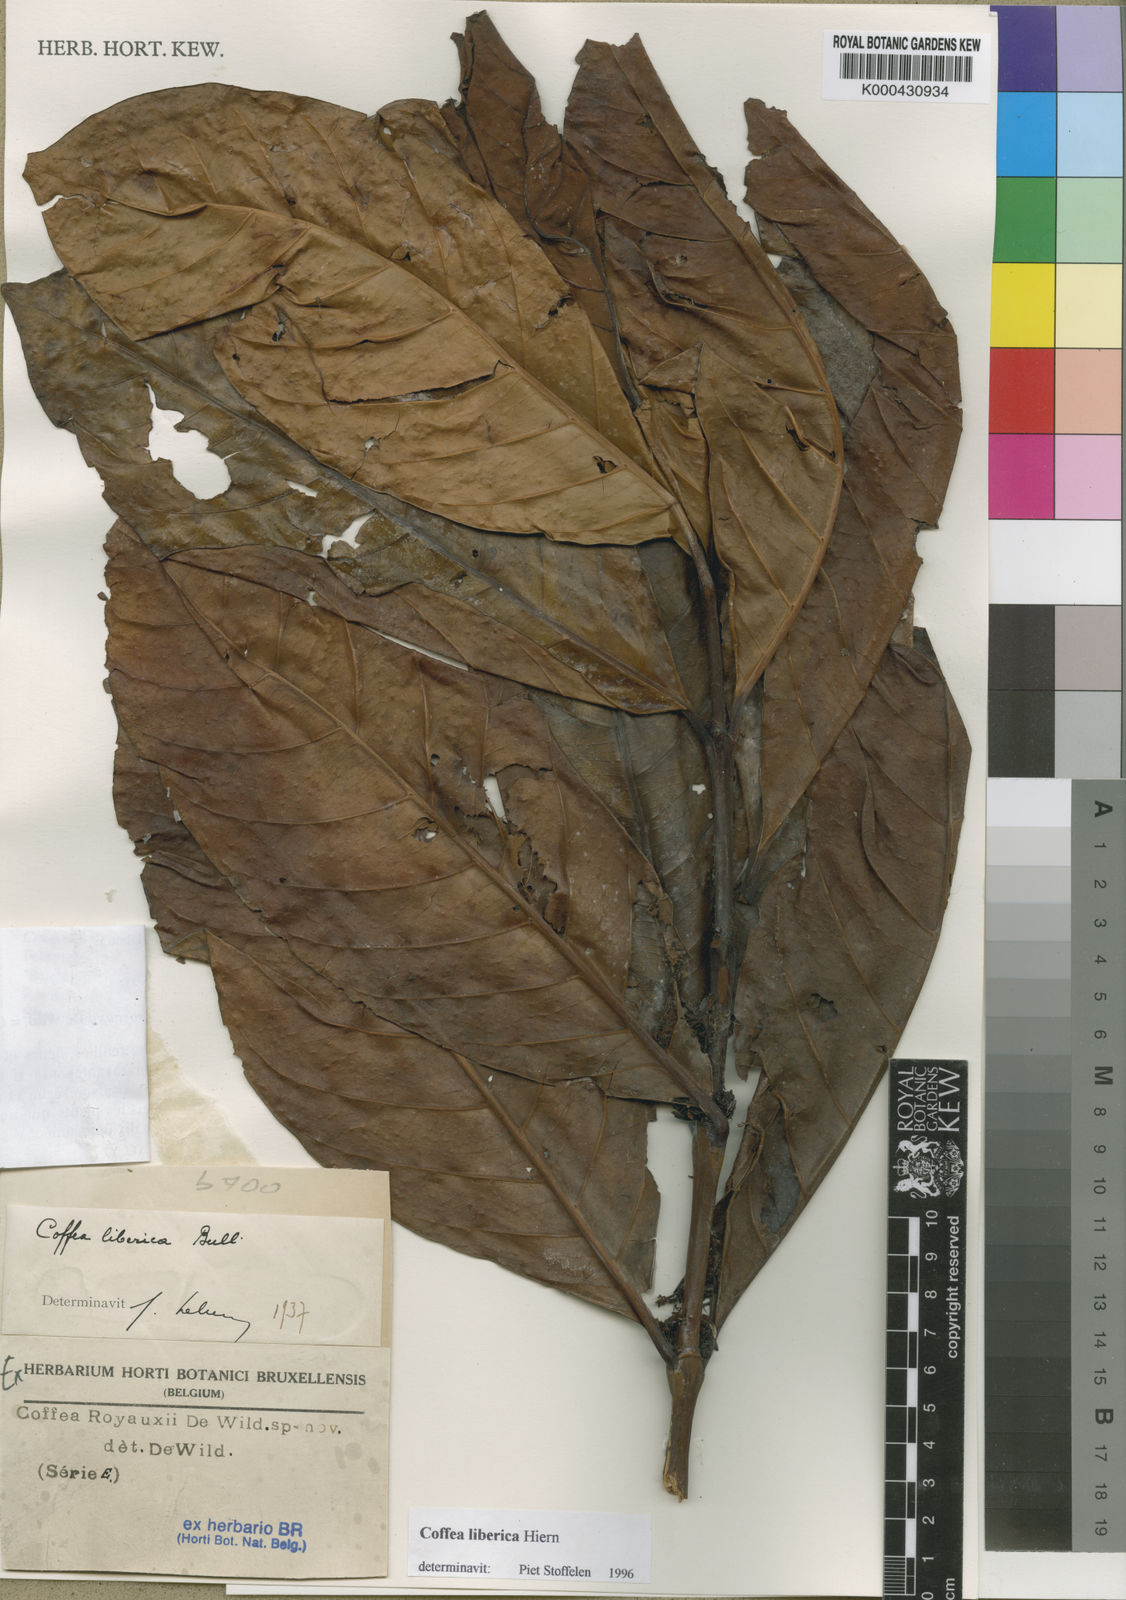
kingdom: Plantae
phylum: Tracheophyta
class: Magnoliopsida
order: Gentianales
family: Rubiaceae
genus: Coffea
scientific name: Coffea
